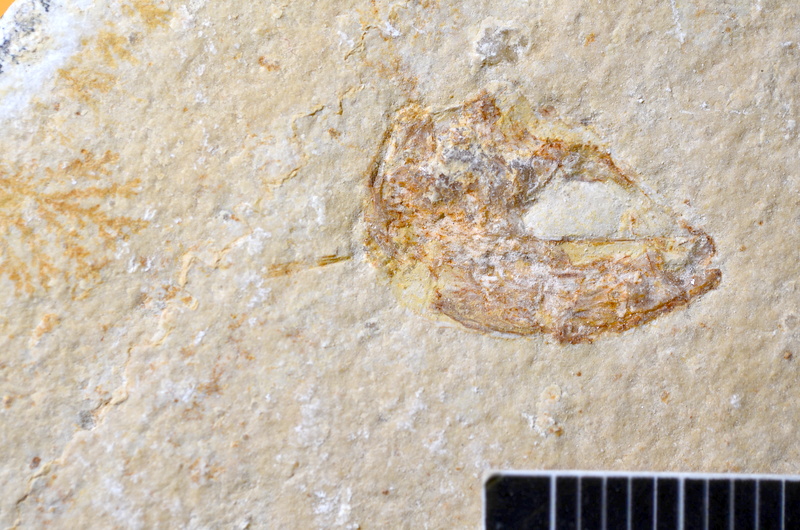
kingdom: Animalia
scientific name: Animalia
